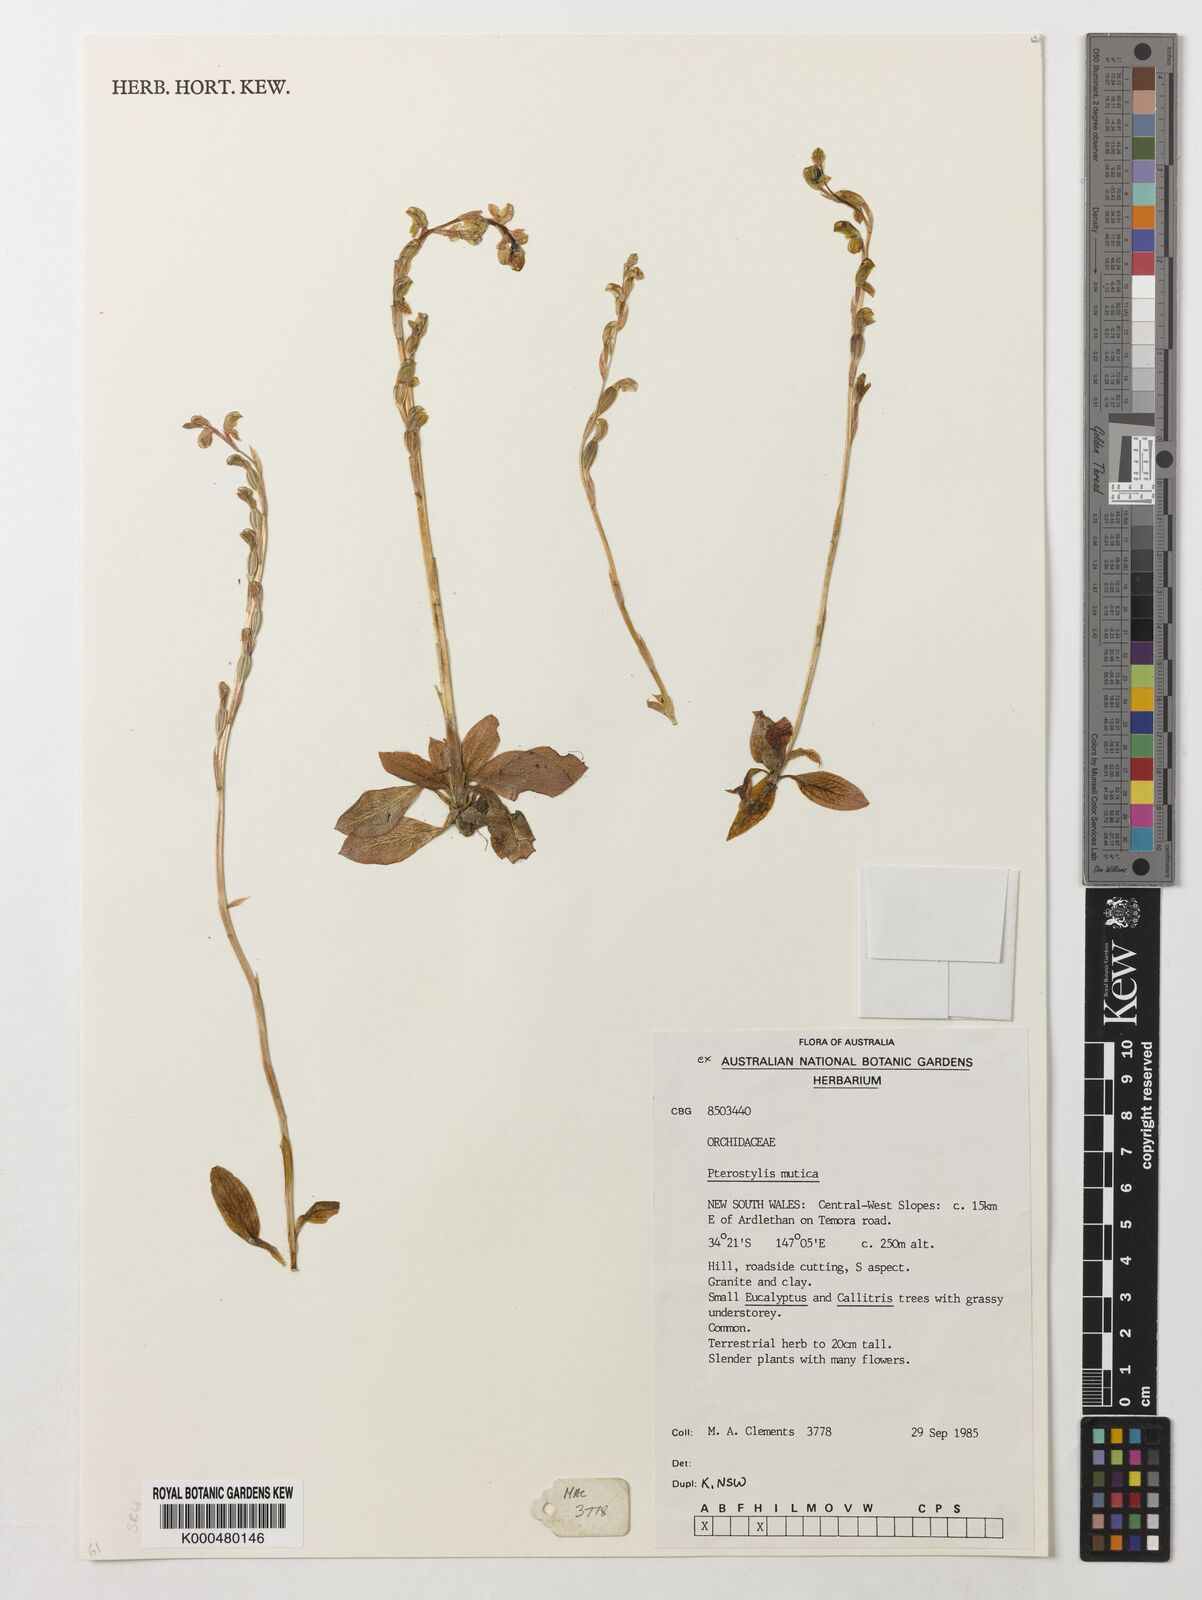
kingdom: Plantae
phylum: Tracheophyta
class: Liliopsida
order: Asparagales
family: Orchidaceae
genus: Pterostylis
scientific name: Pterostylis mutica
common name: Midget greenhood
